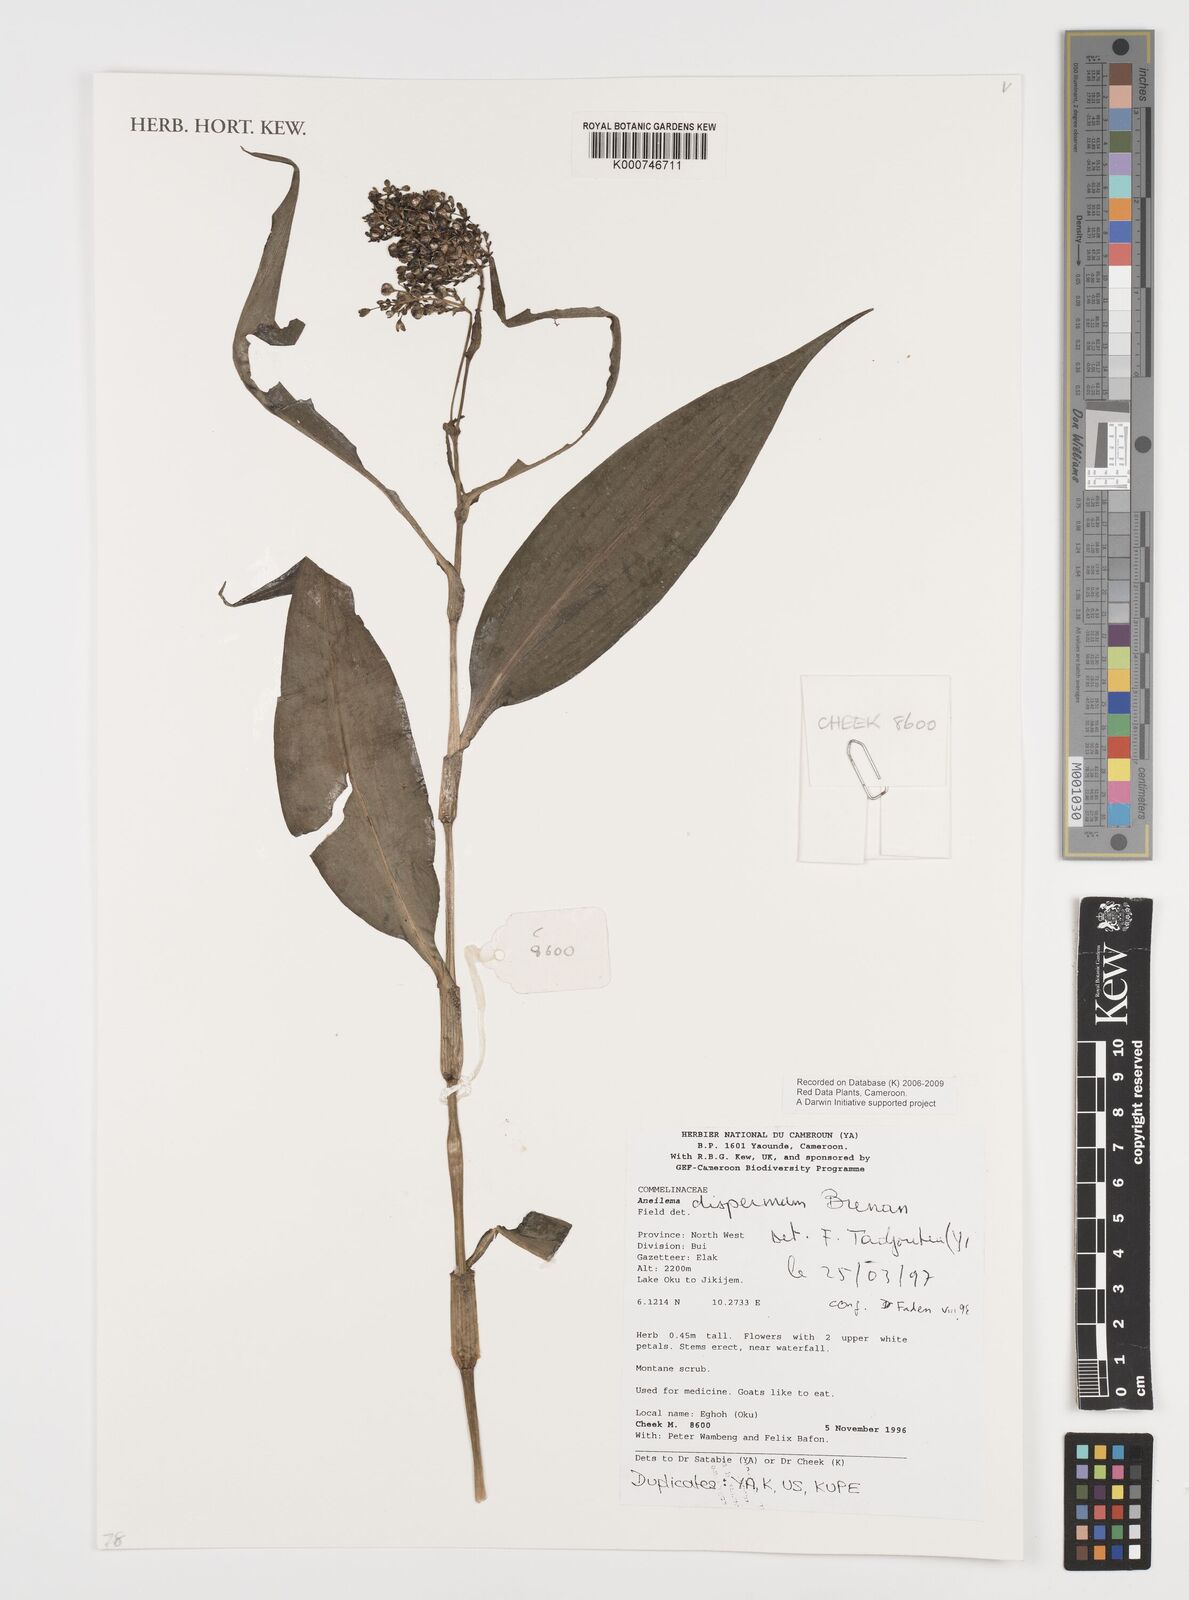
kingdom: Plantae
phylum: Tracheophyta
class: Liliopsida
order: Commelinales
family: Commelinaceae
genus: Aneilema
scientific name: Aneilema dispermum
